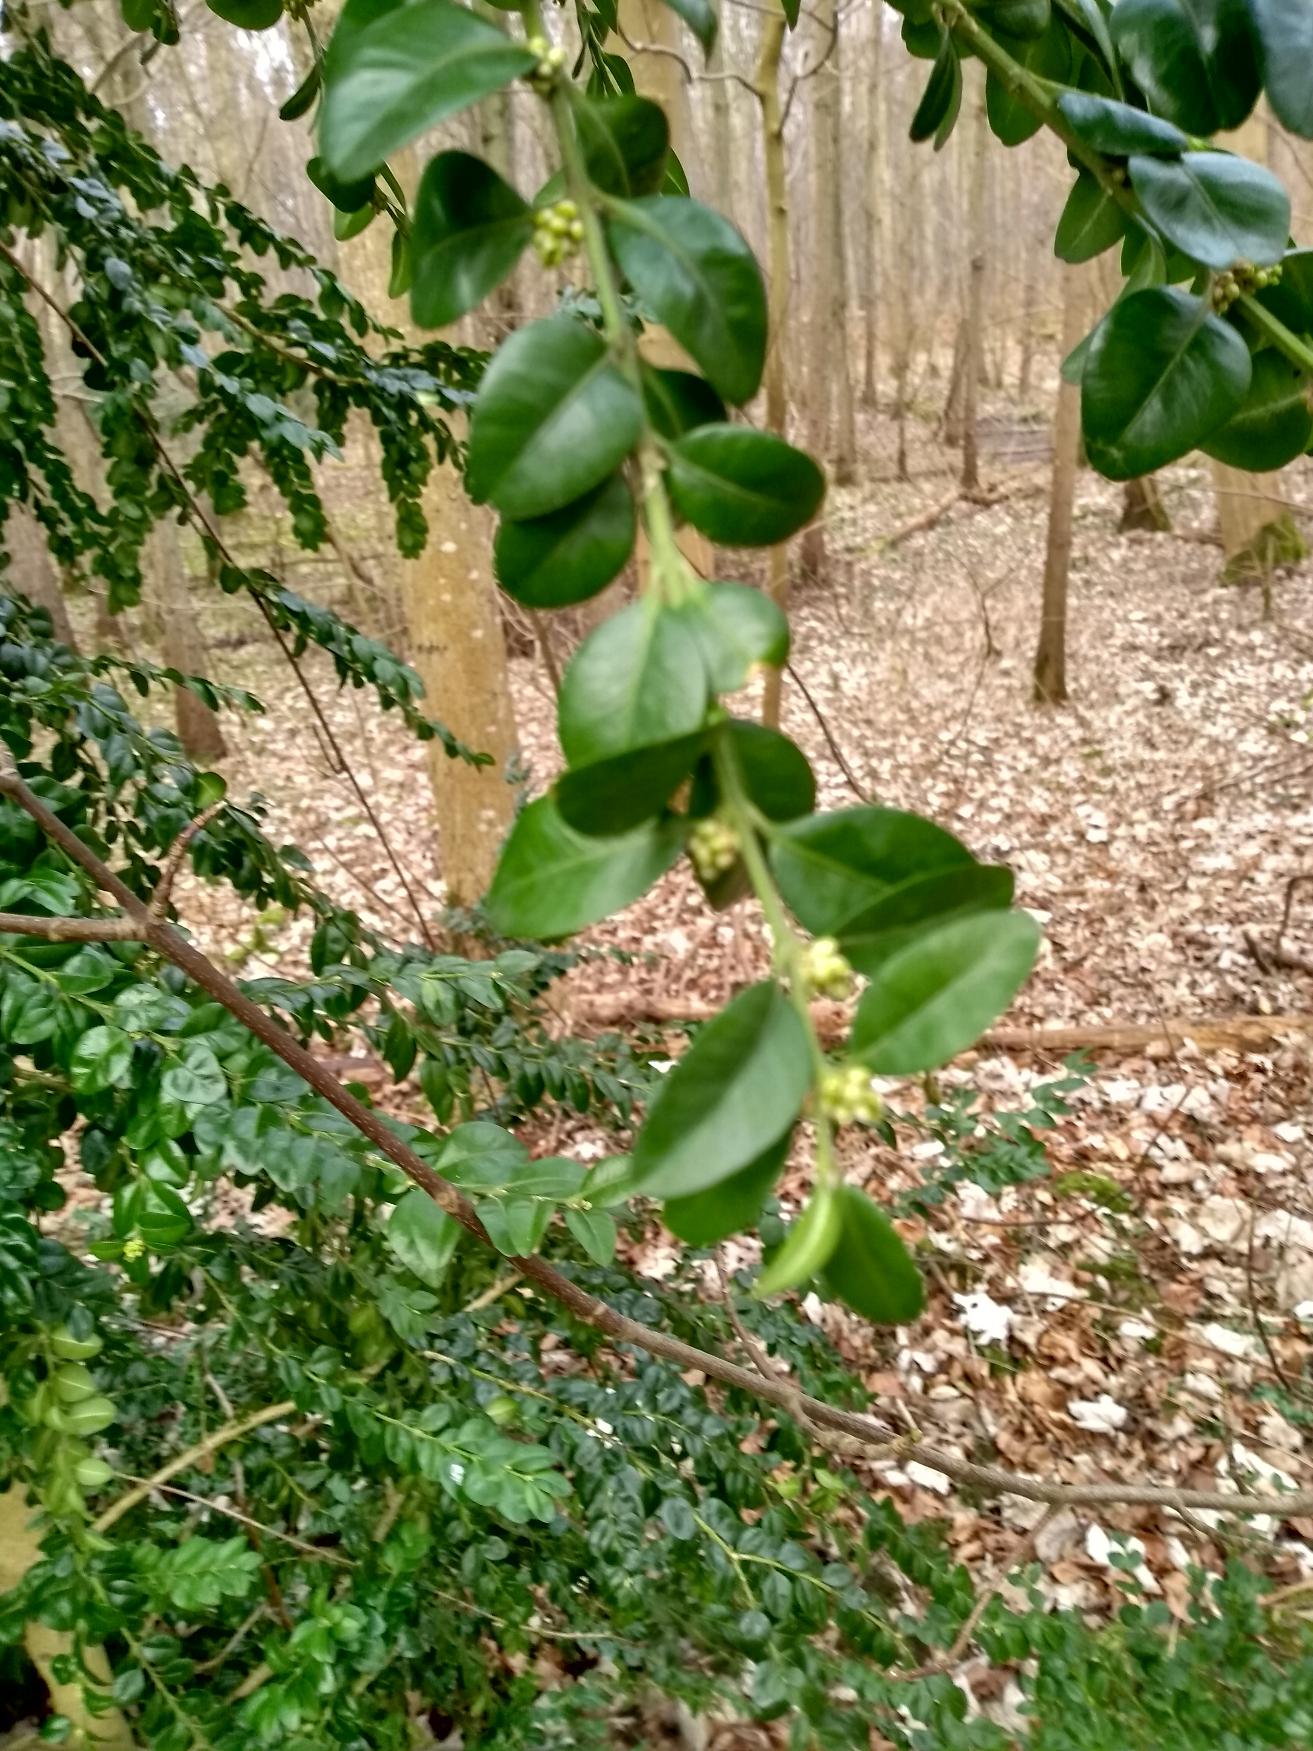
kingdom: Plantae
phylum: Tracheophyta
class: Magnoliopsida
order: Buxales
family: Buxaceae
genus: Buxus
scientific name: Buxus microphylla
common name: Småbladet buksbom
